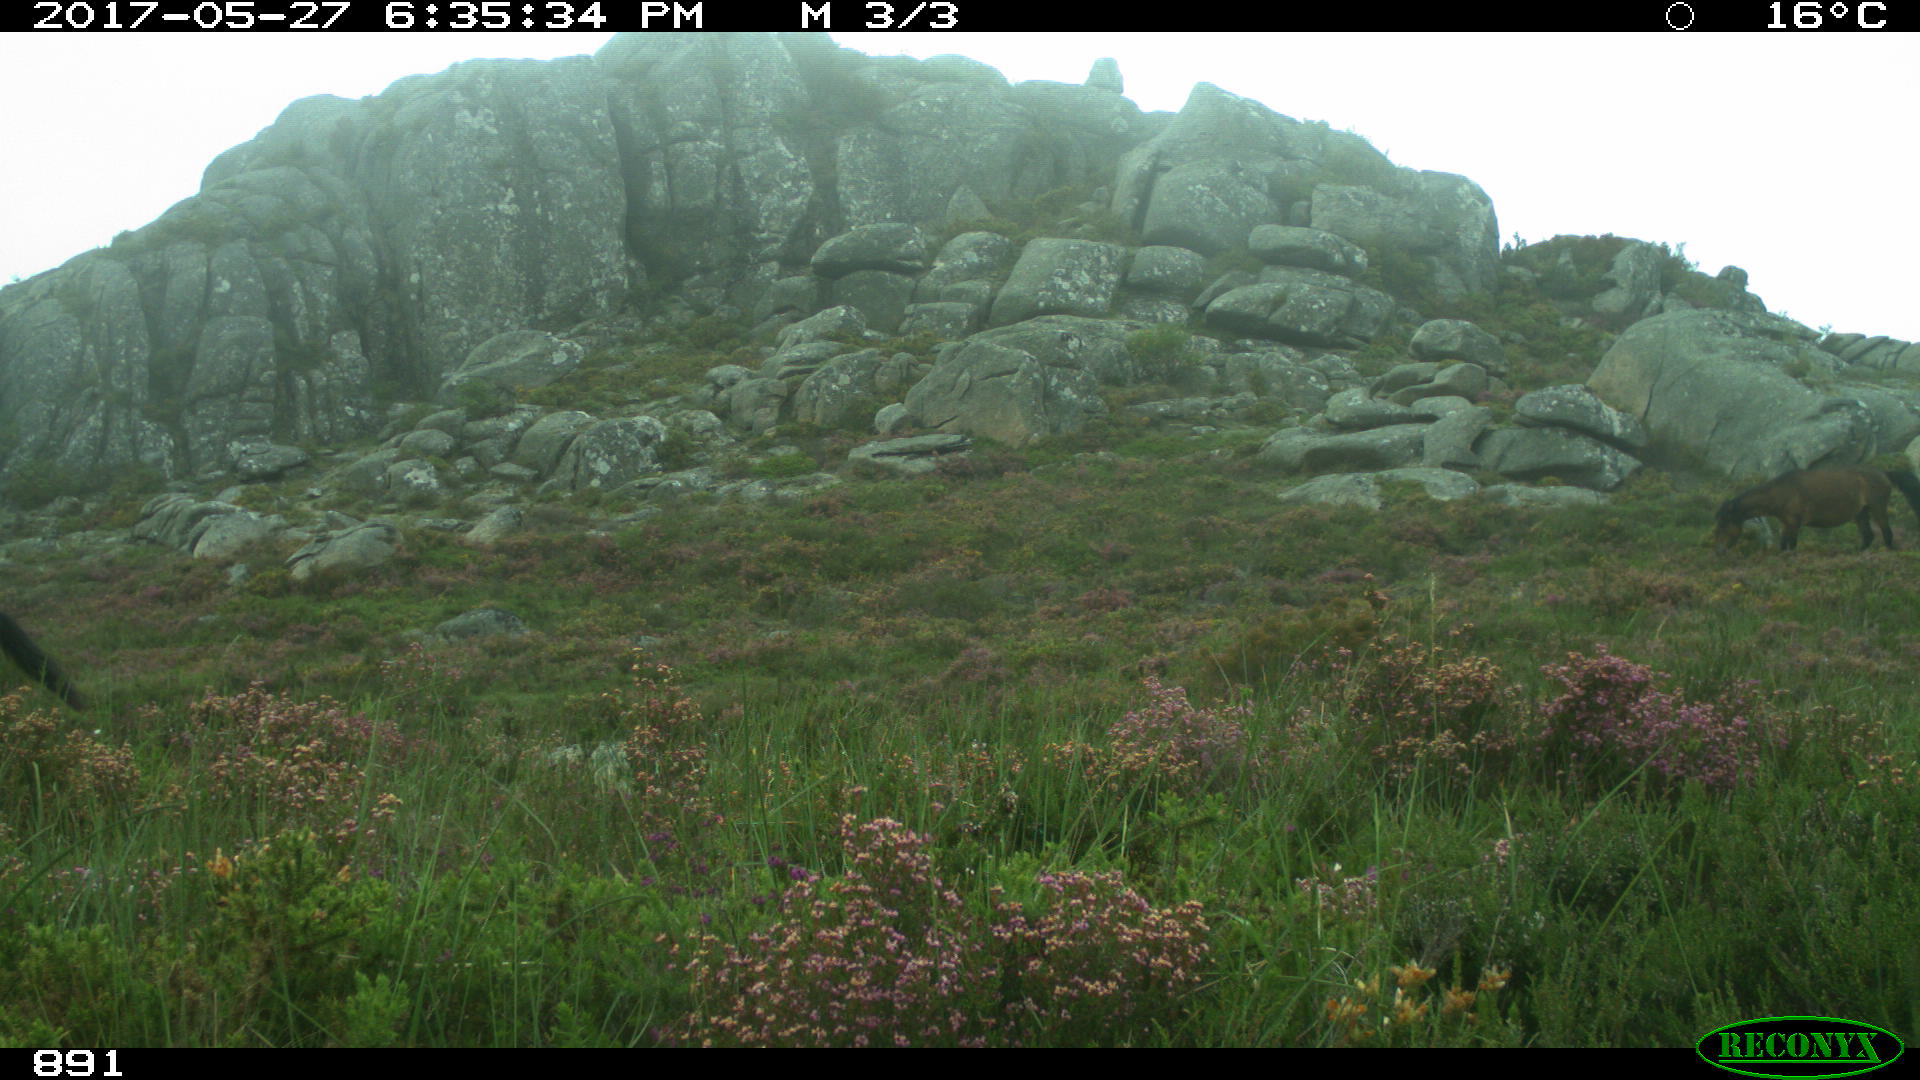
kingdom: Animalia
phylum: Chordata
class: Mammalia
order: Perissodactyla
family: Equidae
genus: Equus
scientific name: Equus caballus
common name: Horse
